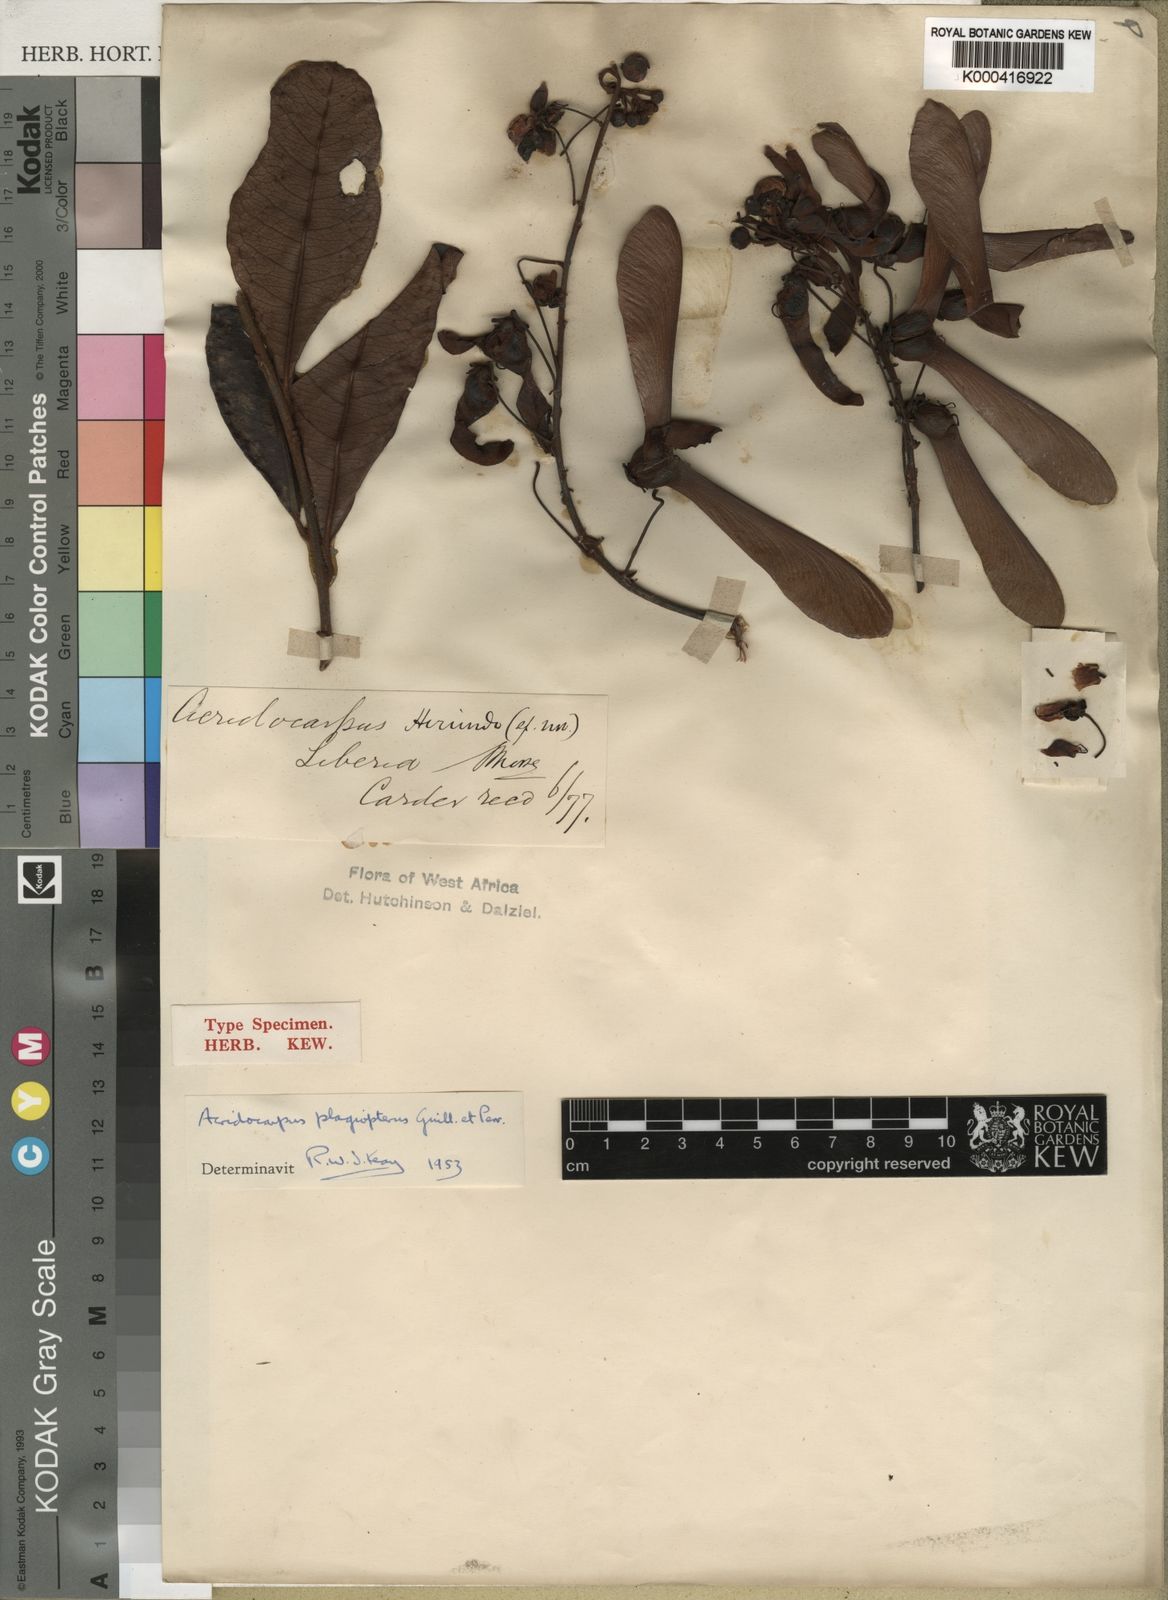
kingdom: Plantae
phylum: Tracheophyta
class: Magnoliopsida
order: Malpighiales
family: Malpighiaceae
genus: Acridocarpus
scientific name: Acridocarpus plagiopterus
